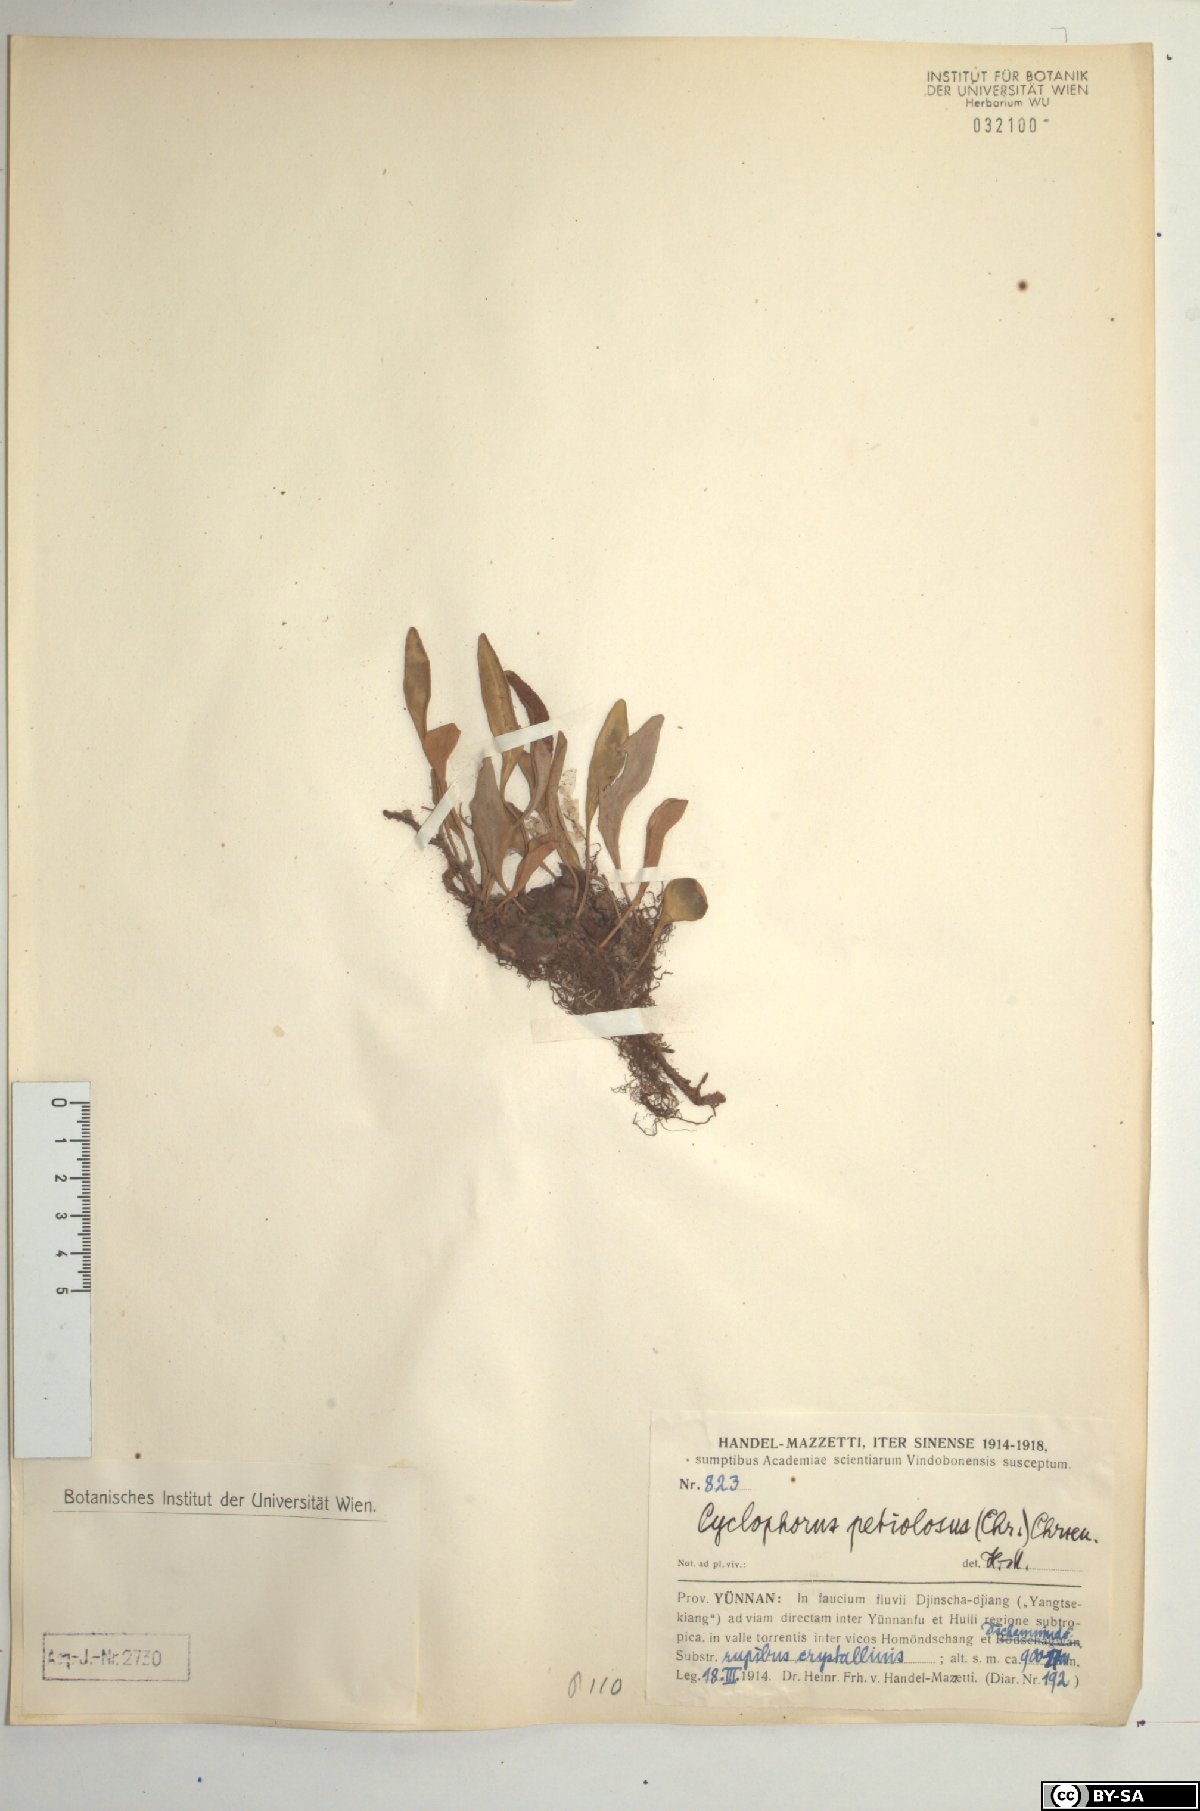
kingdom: Plantae
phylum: Tracheophyta
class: Polypodiopsida
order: Polypodiales
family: Polypodiaceae
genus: Pyrrosia
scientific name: Pyrrosia petiolosa
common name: Pyrrosia
